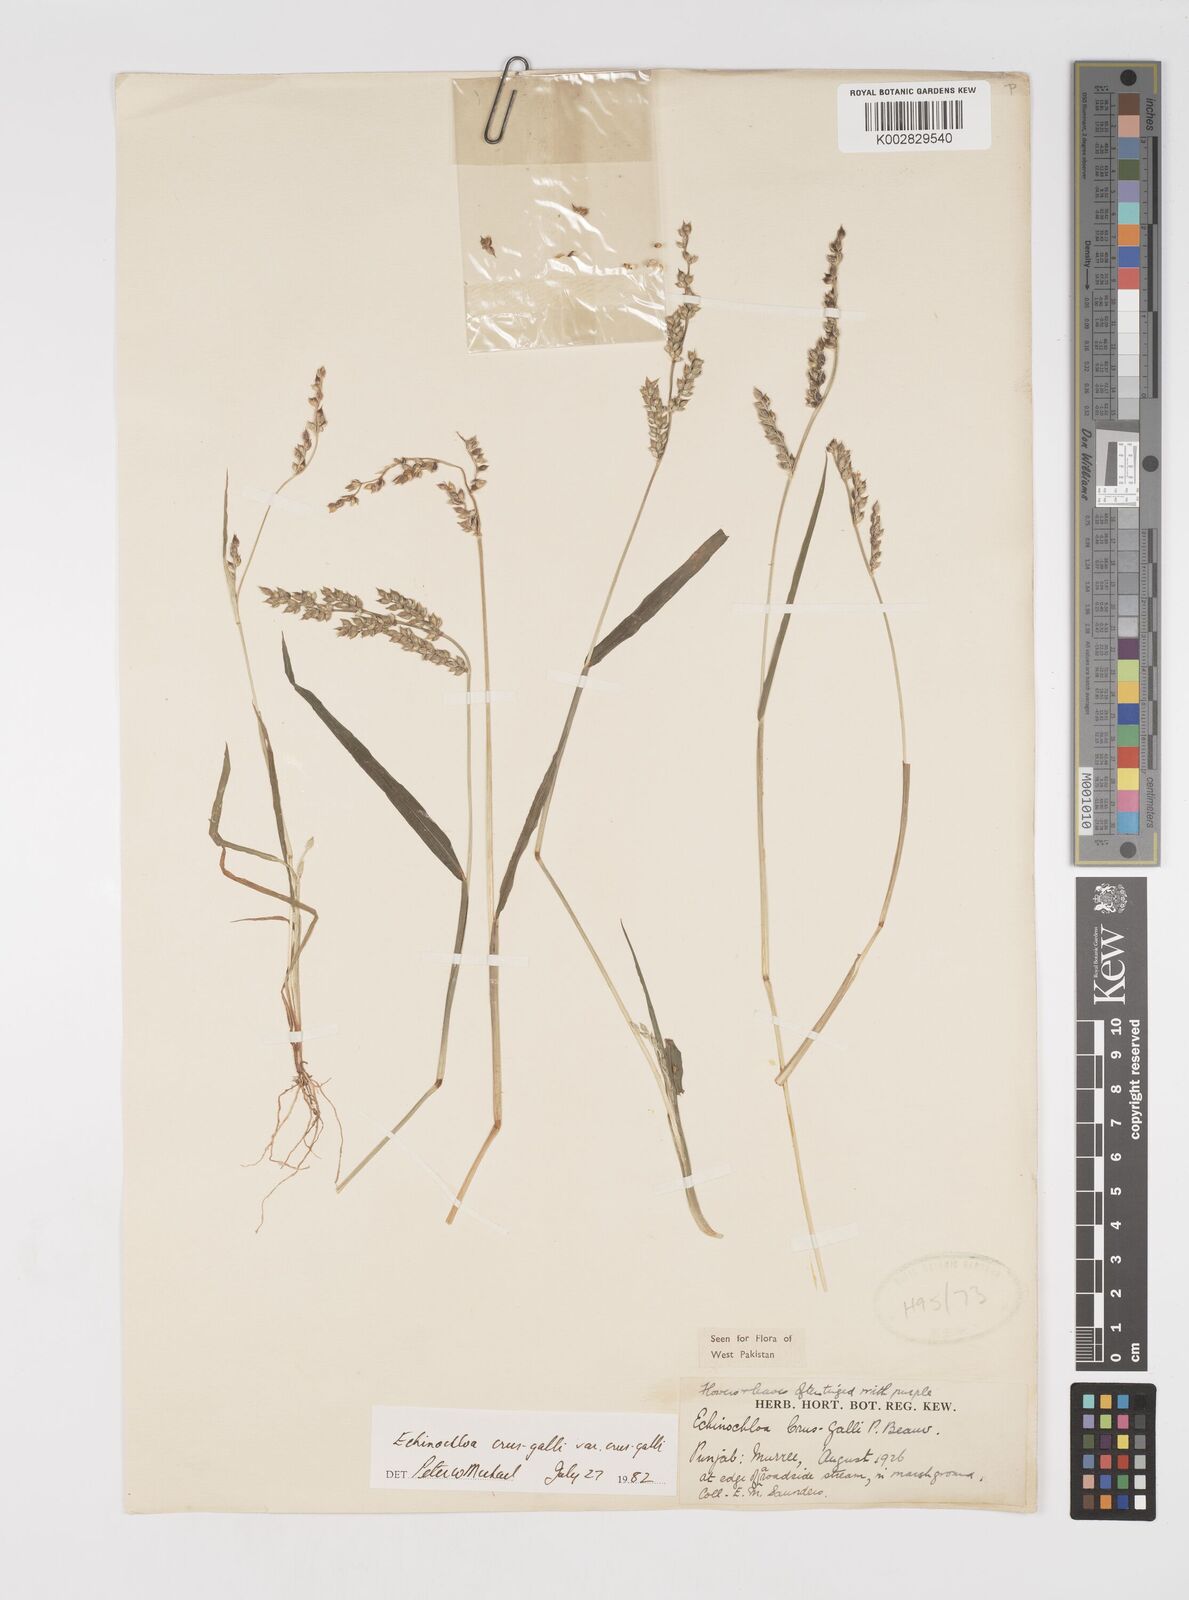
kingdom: Plantae
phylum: Tracheophyta
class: Liliopsida
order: Poales
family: Poaceae
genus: Echinochloa
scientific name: Echinochloa crus-galli
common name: Cockspur
